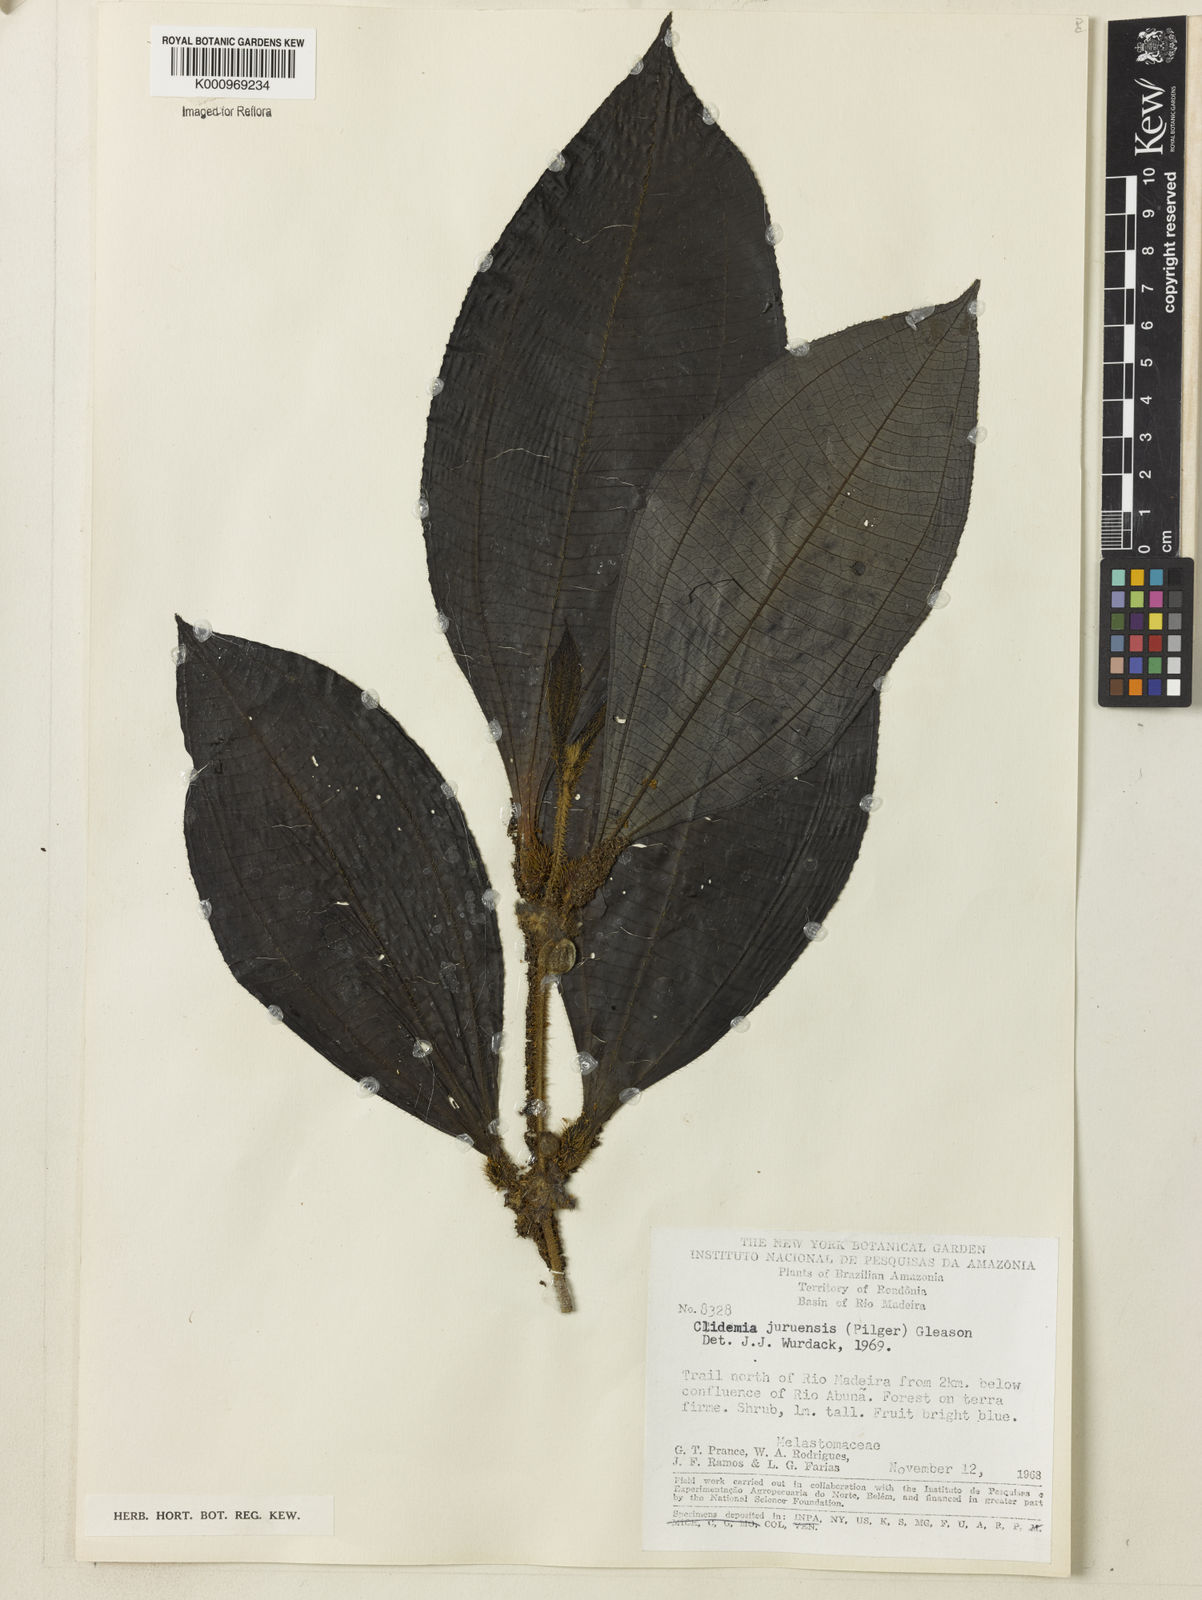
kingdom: Plantae
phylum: Tracheophyta
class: Magnoliopsida
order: Myrtales
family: Melastomataceae
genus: Miconia
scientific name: Miconia formicojuruensis
